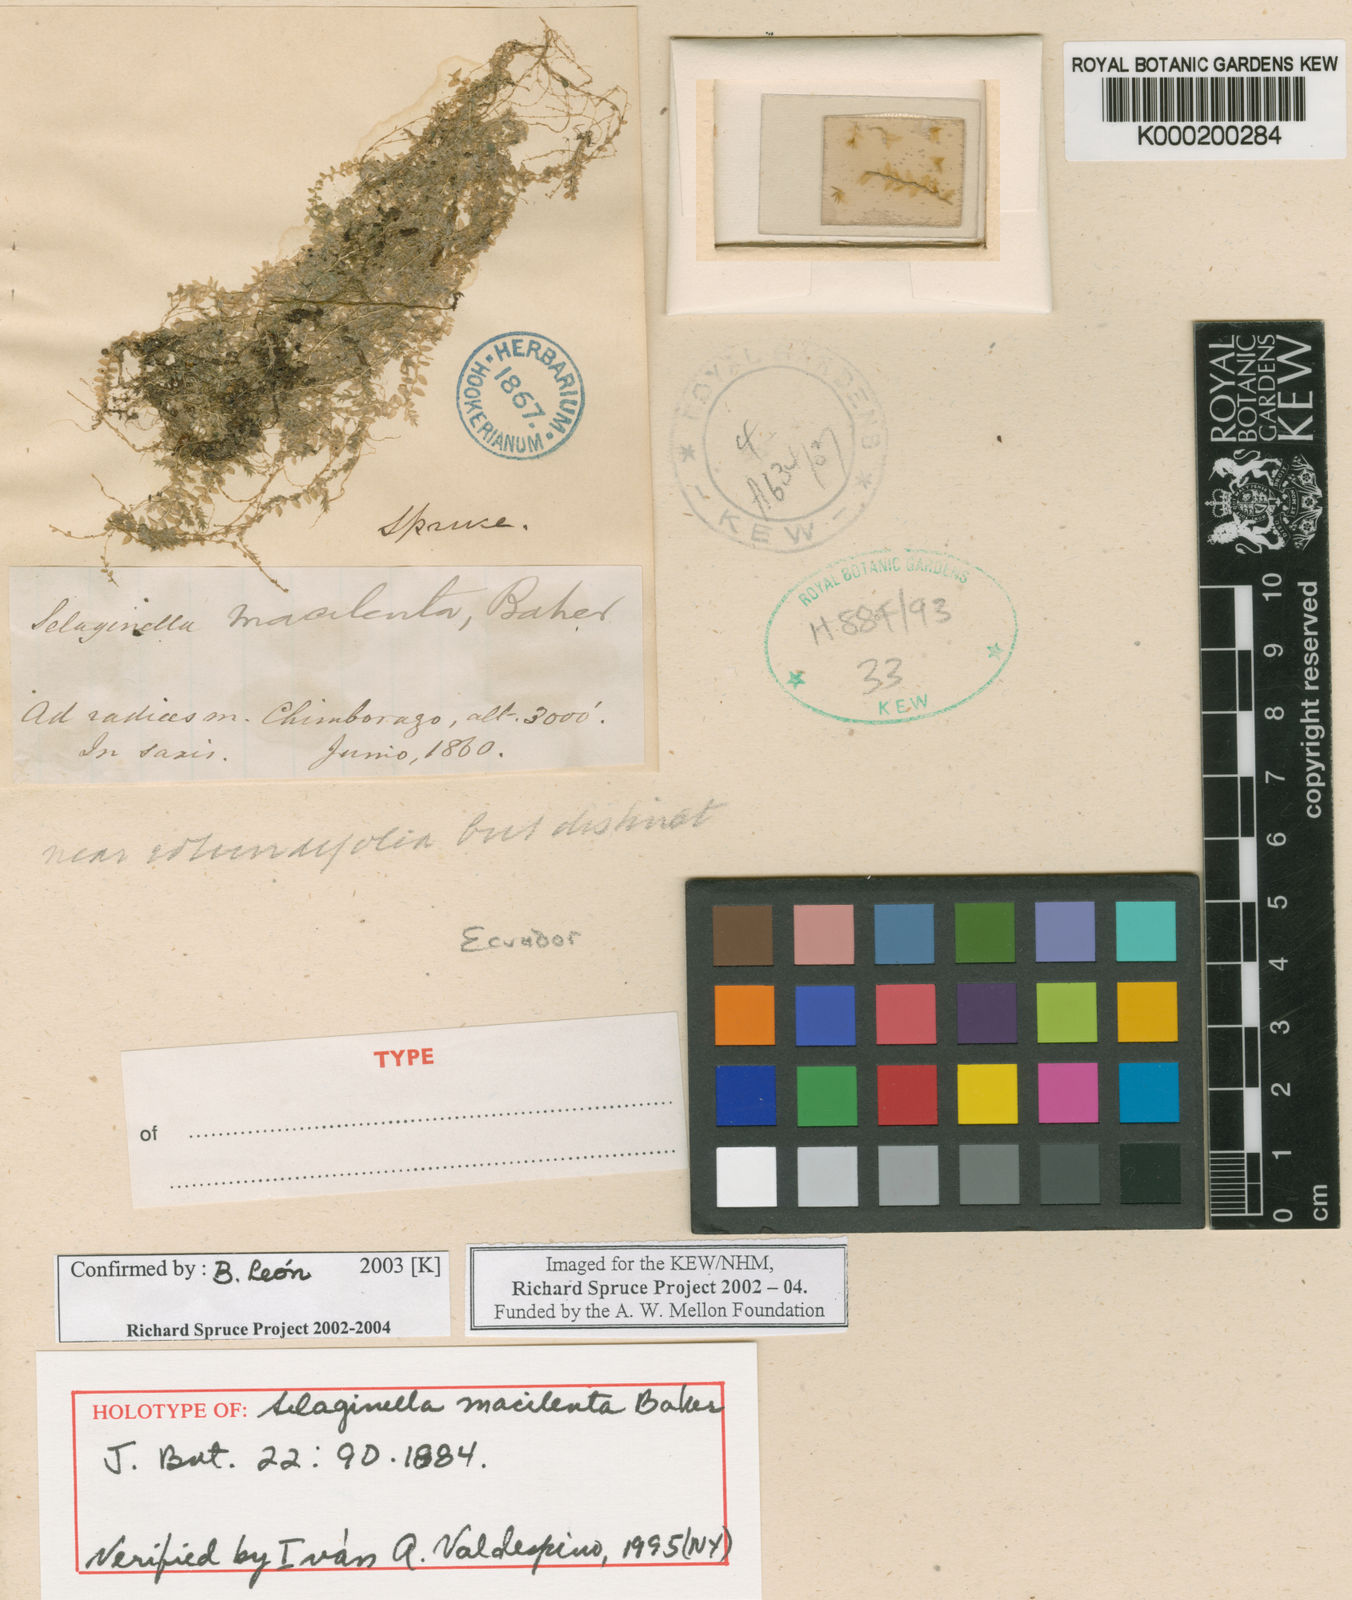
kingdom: Plantae
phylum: Tracheophyta
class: Lycopodiopsida
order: Selaginellales
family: Selaginellaceae
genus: Selaginella
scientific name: Selaginella macilenta
